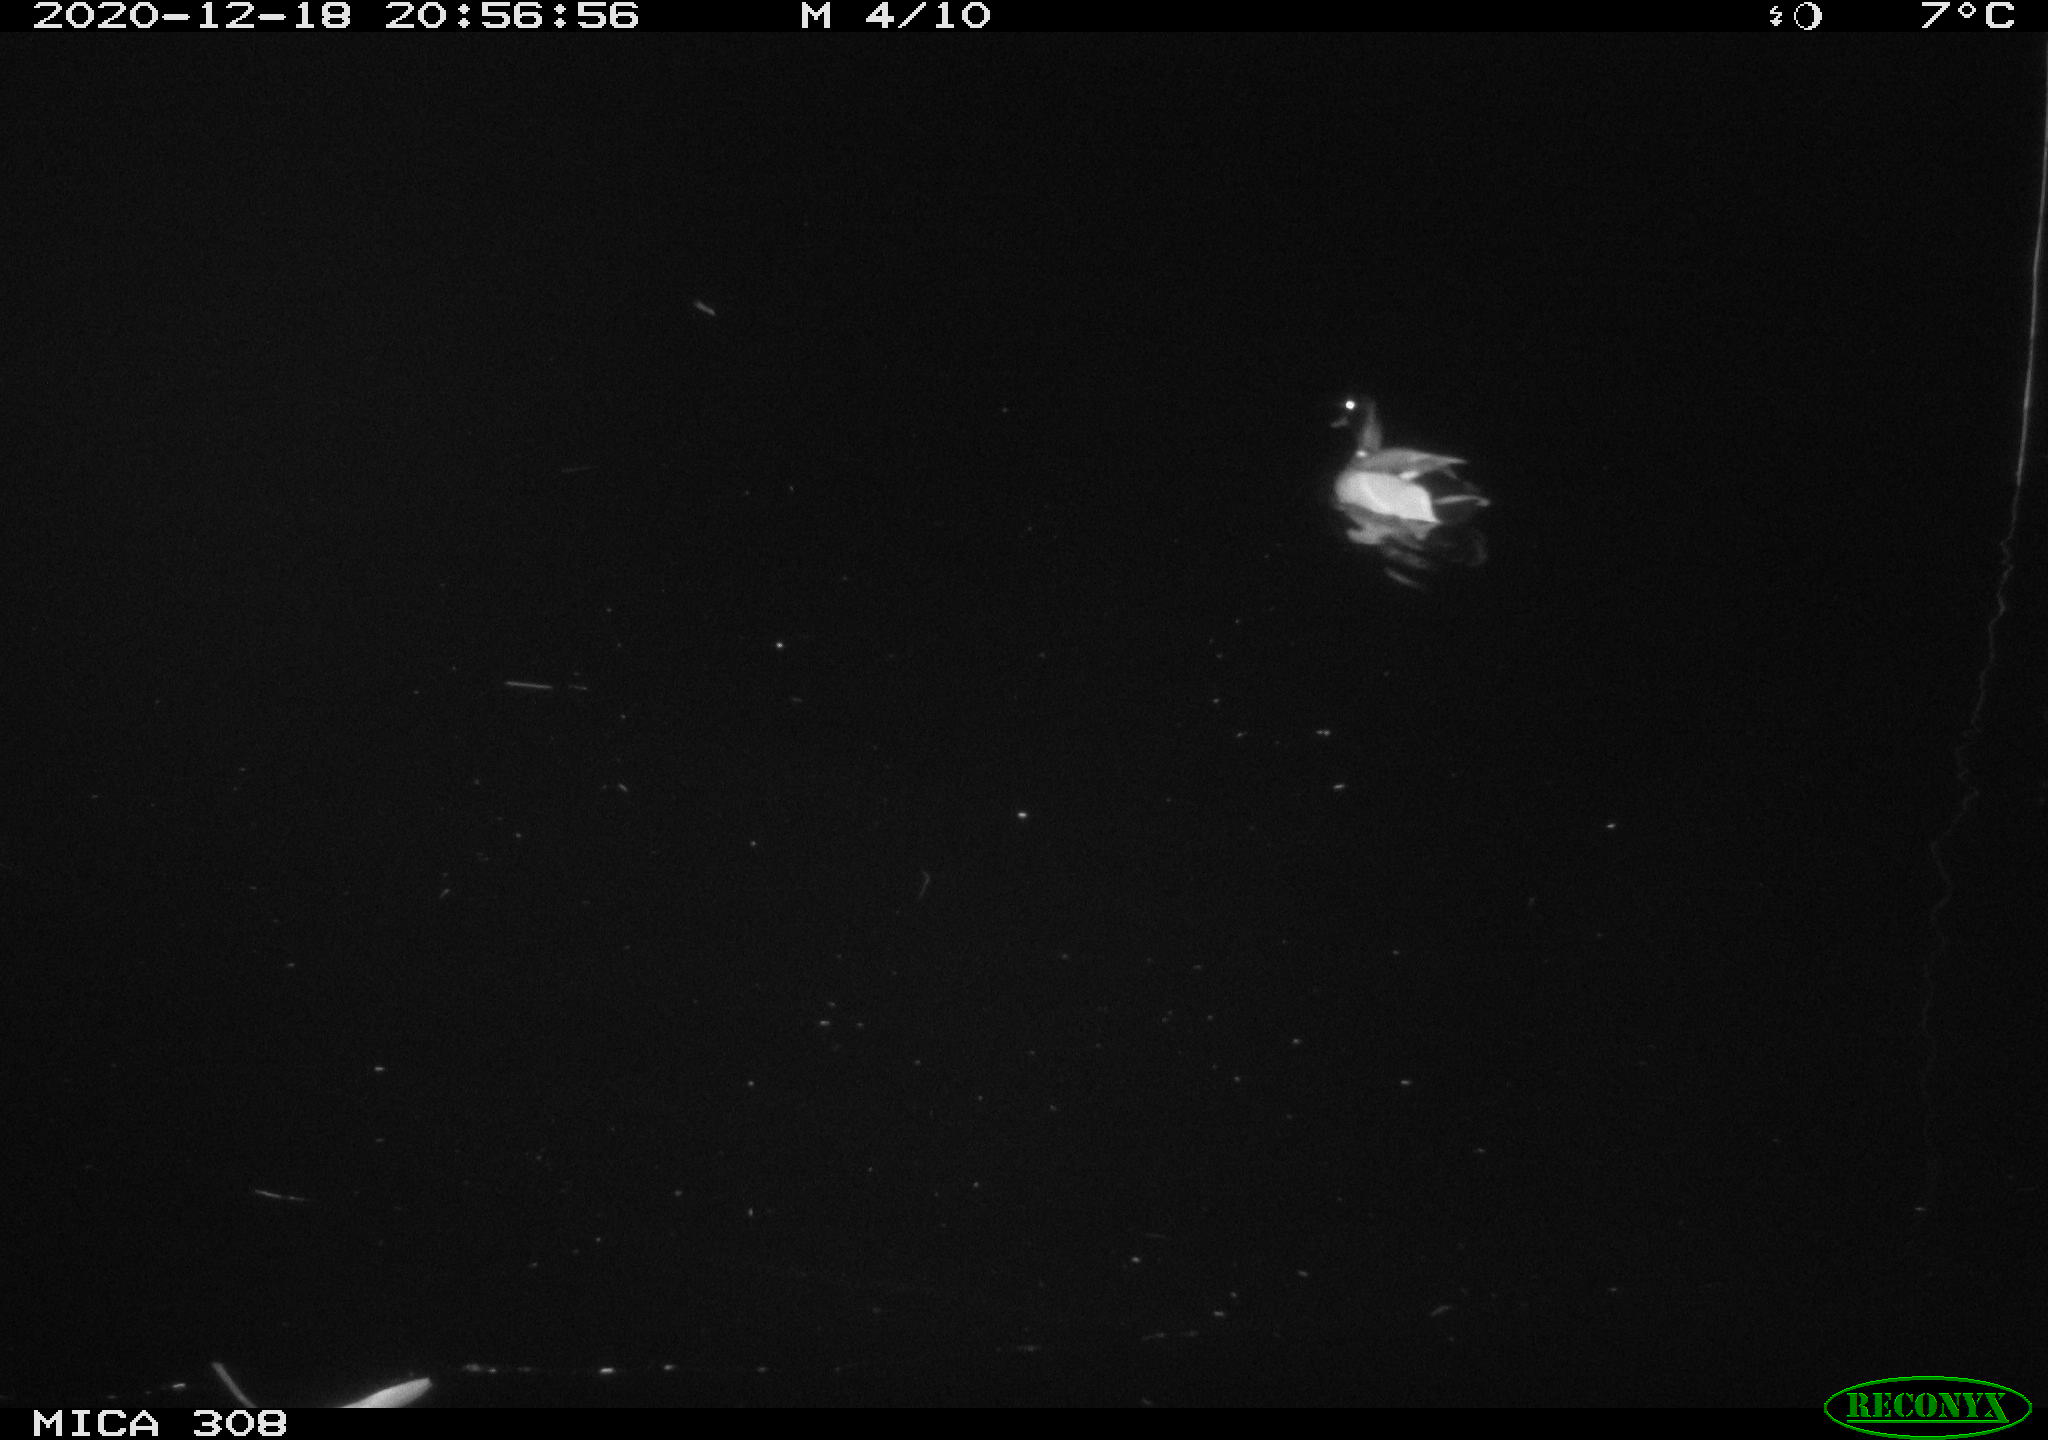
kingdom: Animalia
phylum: Chordata
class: Aves
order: Anseriformes
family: Anatidae
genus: Anas
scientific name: Anas platyrhynchos
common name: Mallard
